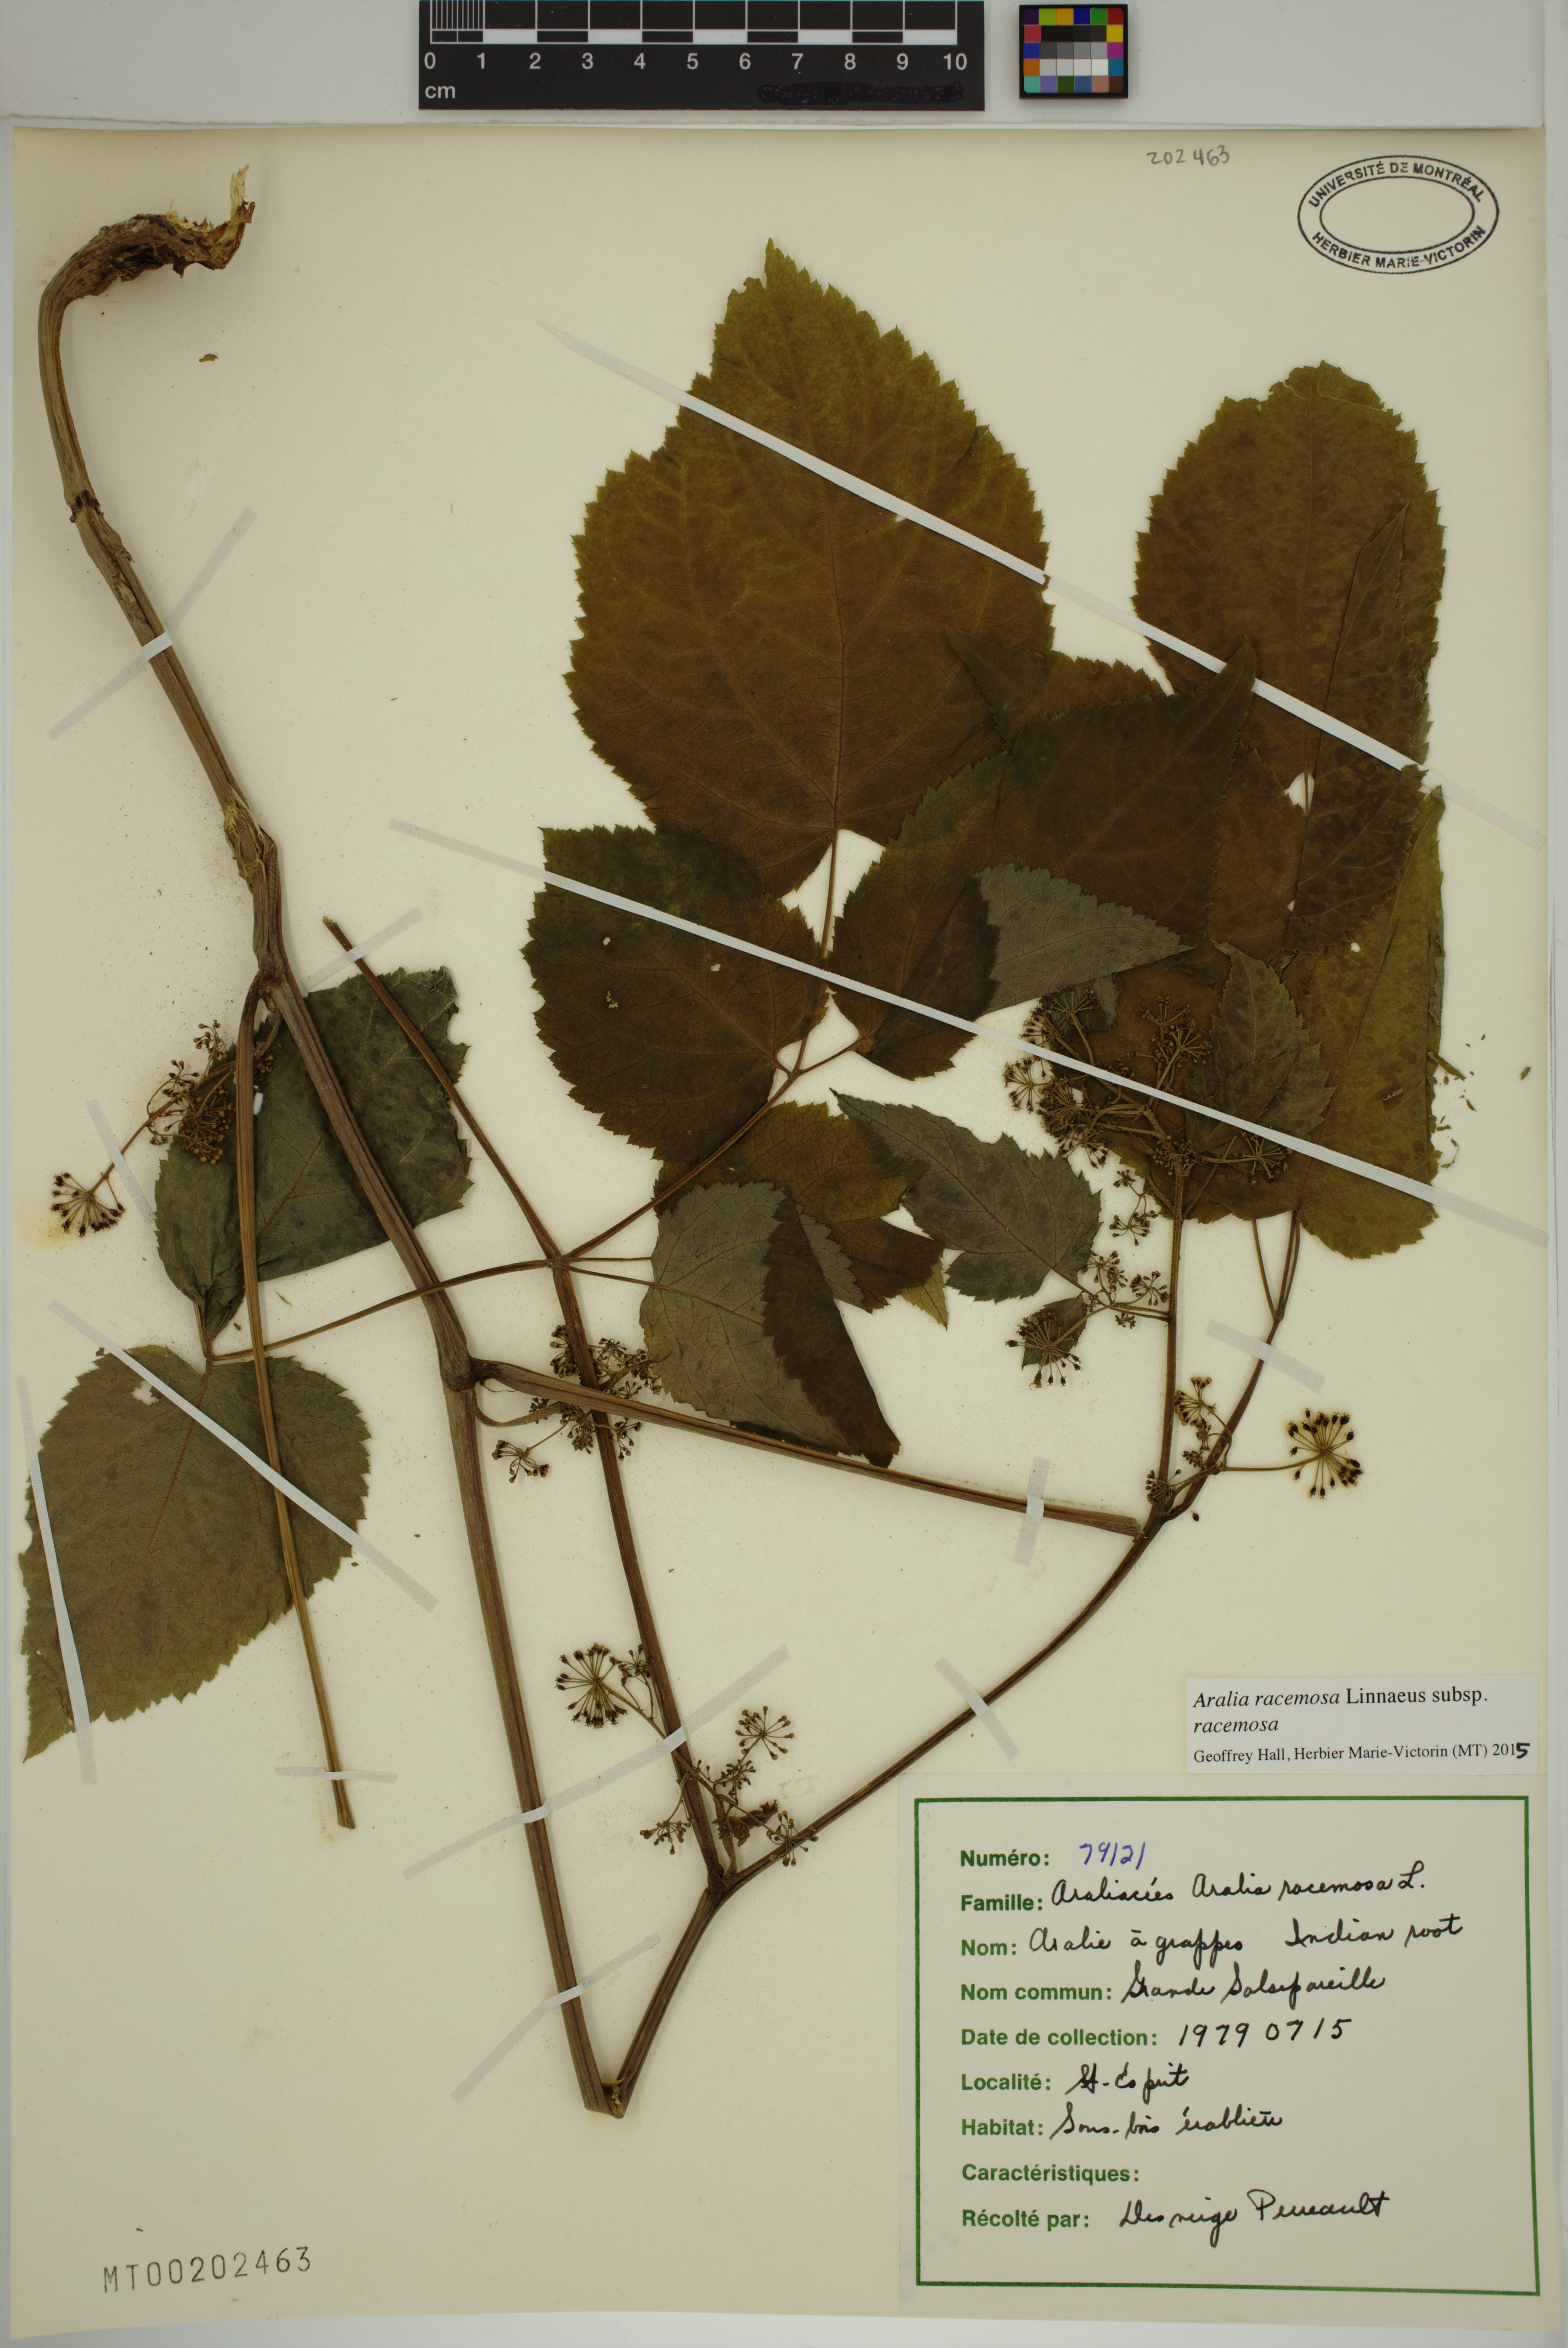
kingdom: Plantae
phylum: Tracheophyta
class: Magnoliopsida
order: Apiales
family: Araliaceae
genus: Aralia
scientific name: Aralia racemosa
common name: American-spikenard
